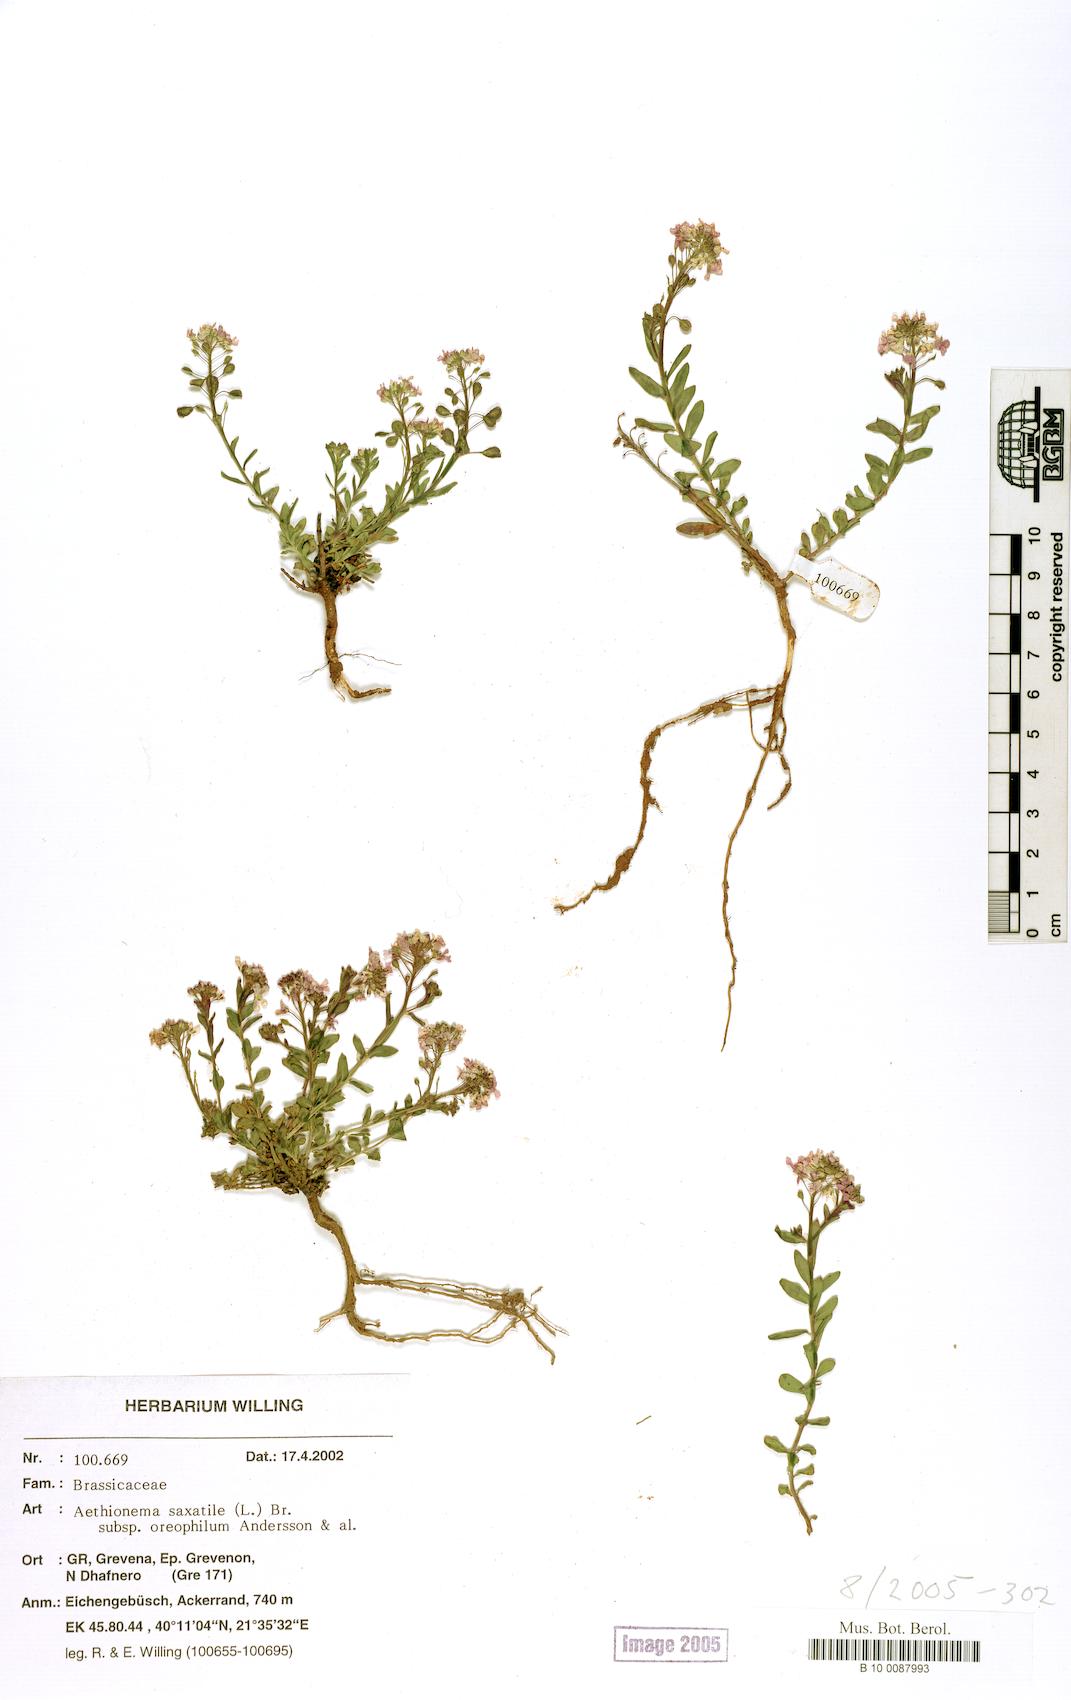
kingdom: Plantae
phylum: Tracheophyta
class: Magnoliopsida
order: Brassicales
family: Brassicaceae
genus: Aethionema
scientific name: Aethionema saxatile
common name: Burnt candytuft
